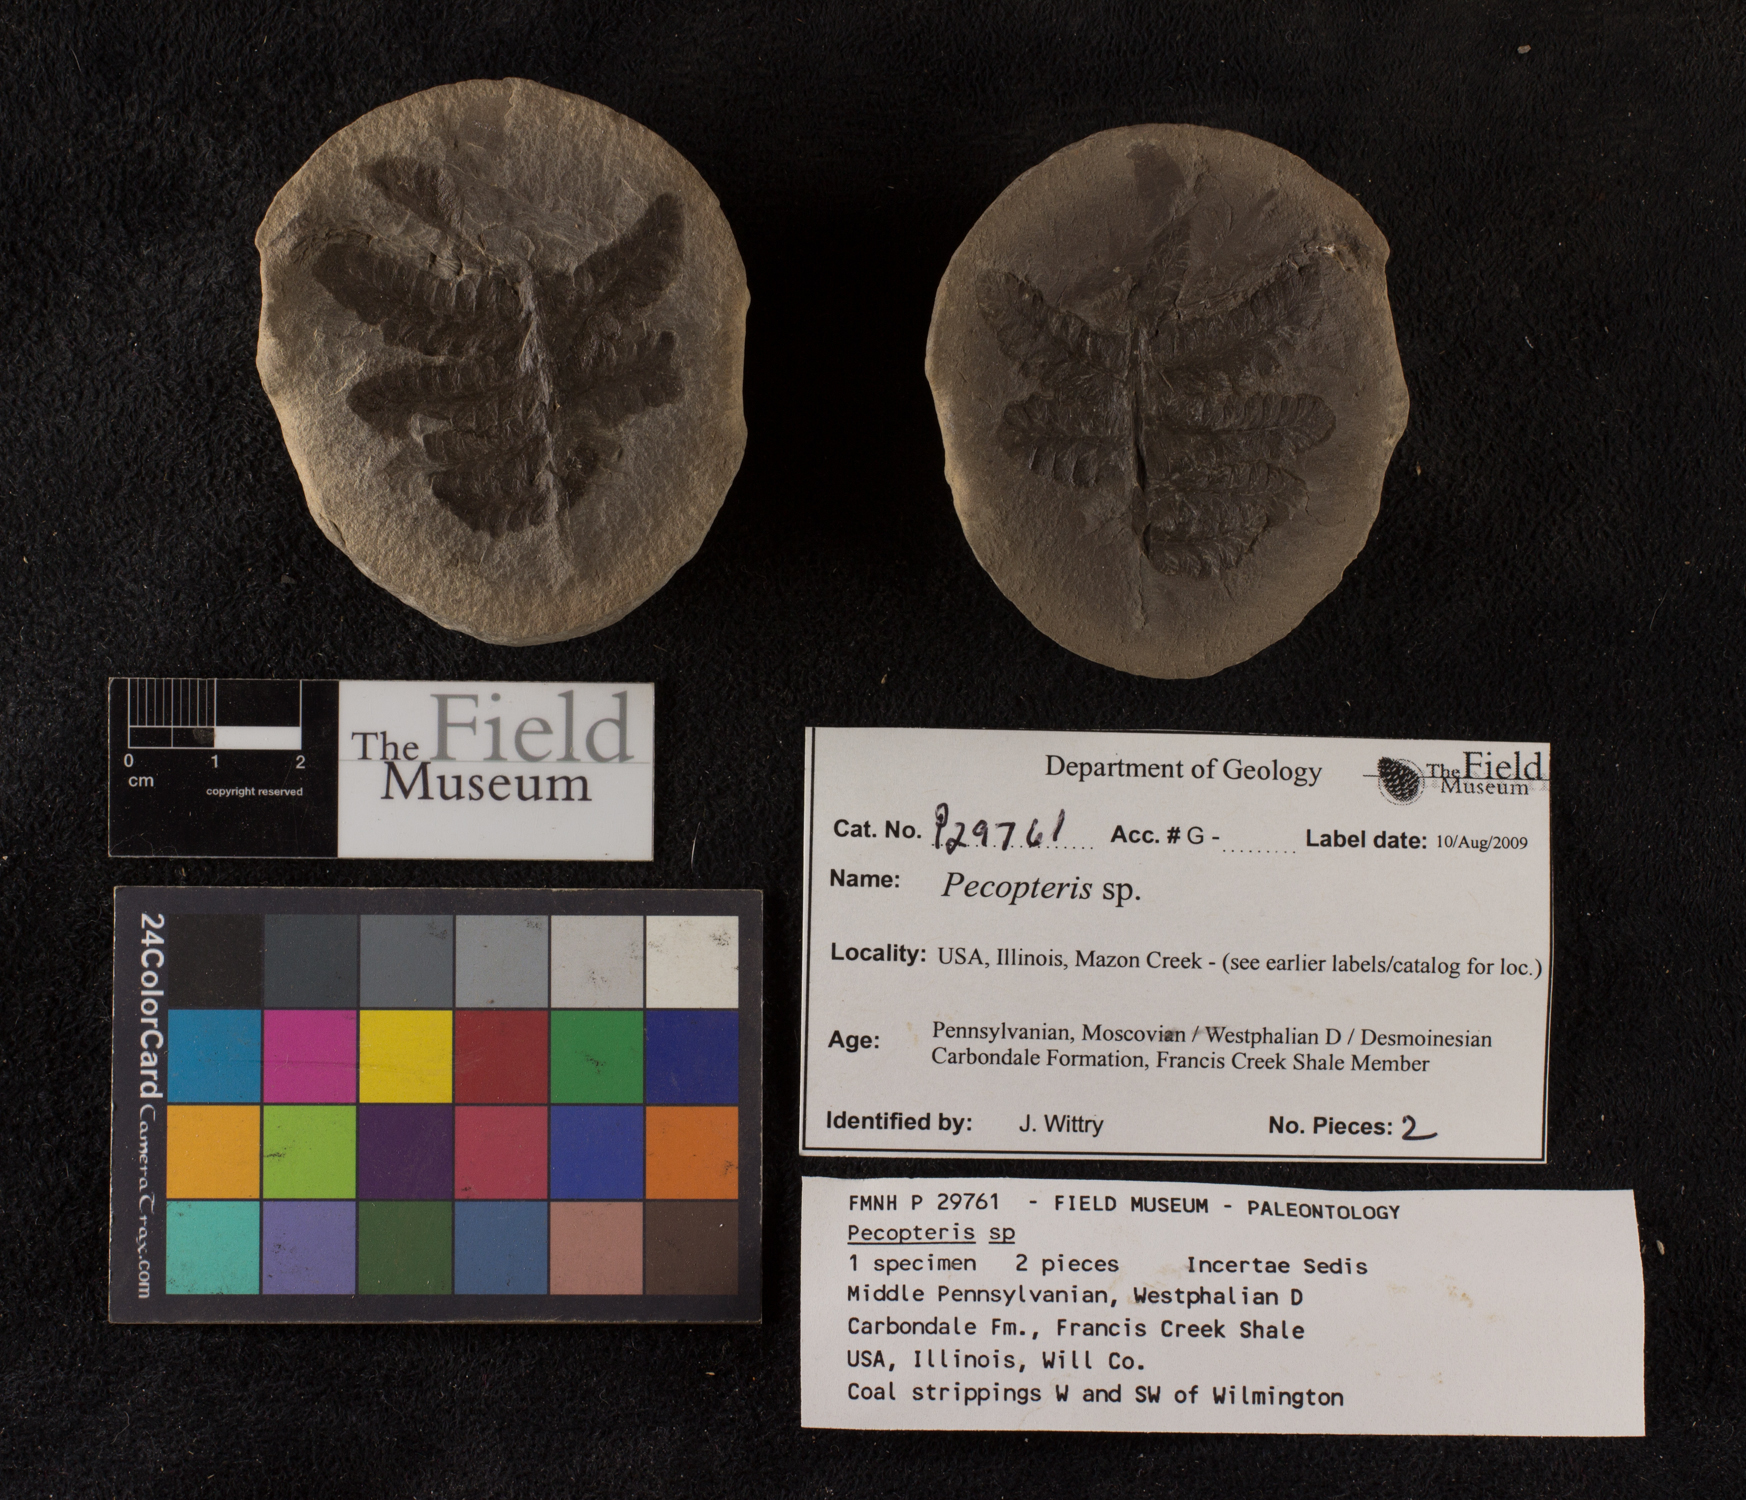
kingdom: Plantae
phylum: Tracheophyta
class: Polypodiopsida
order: Marattiales
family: Asterothecaceae
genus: Pecopteris
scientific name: Pecopteris
